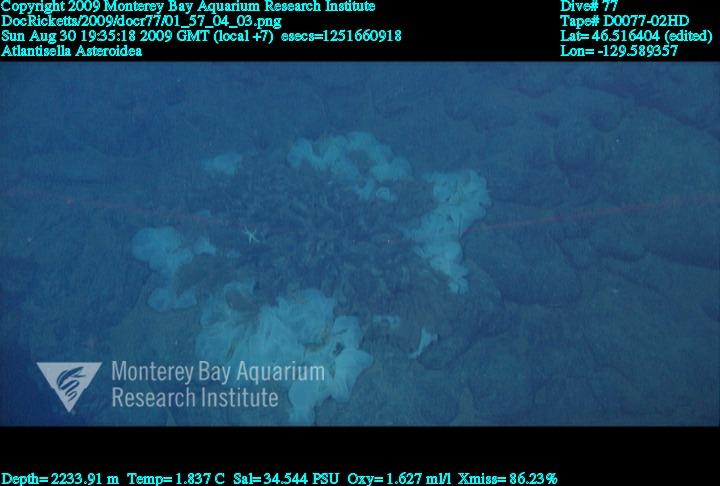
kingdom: Animalia
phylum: Porifera
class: Hexactinellida
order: Lyssacinosida
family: Euplectellidae
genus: Atlantisella
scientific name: Atlantisella
